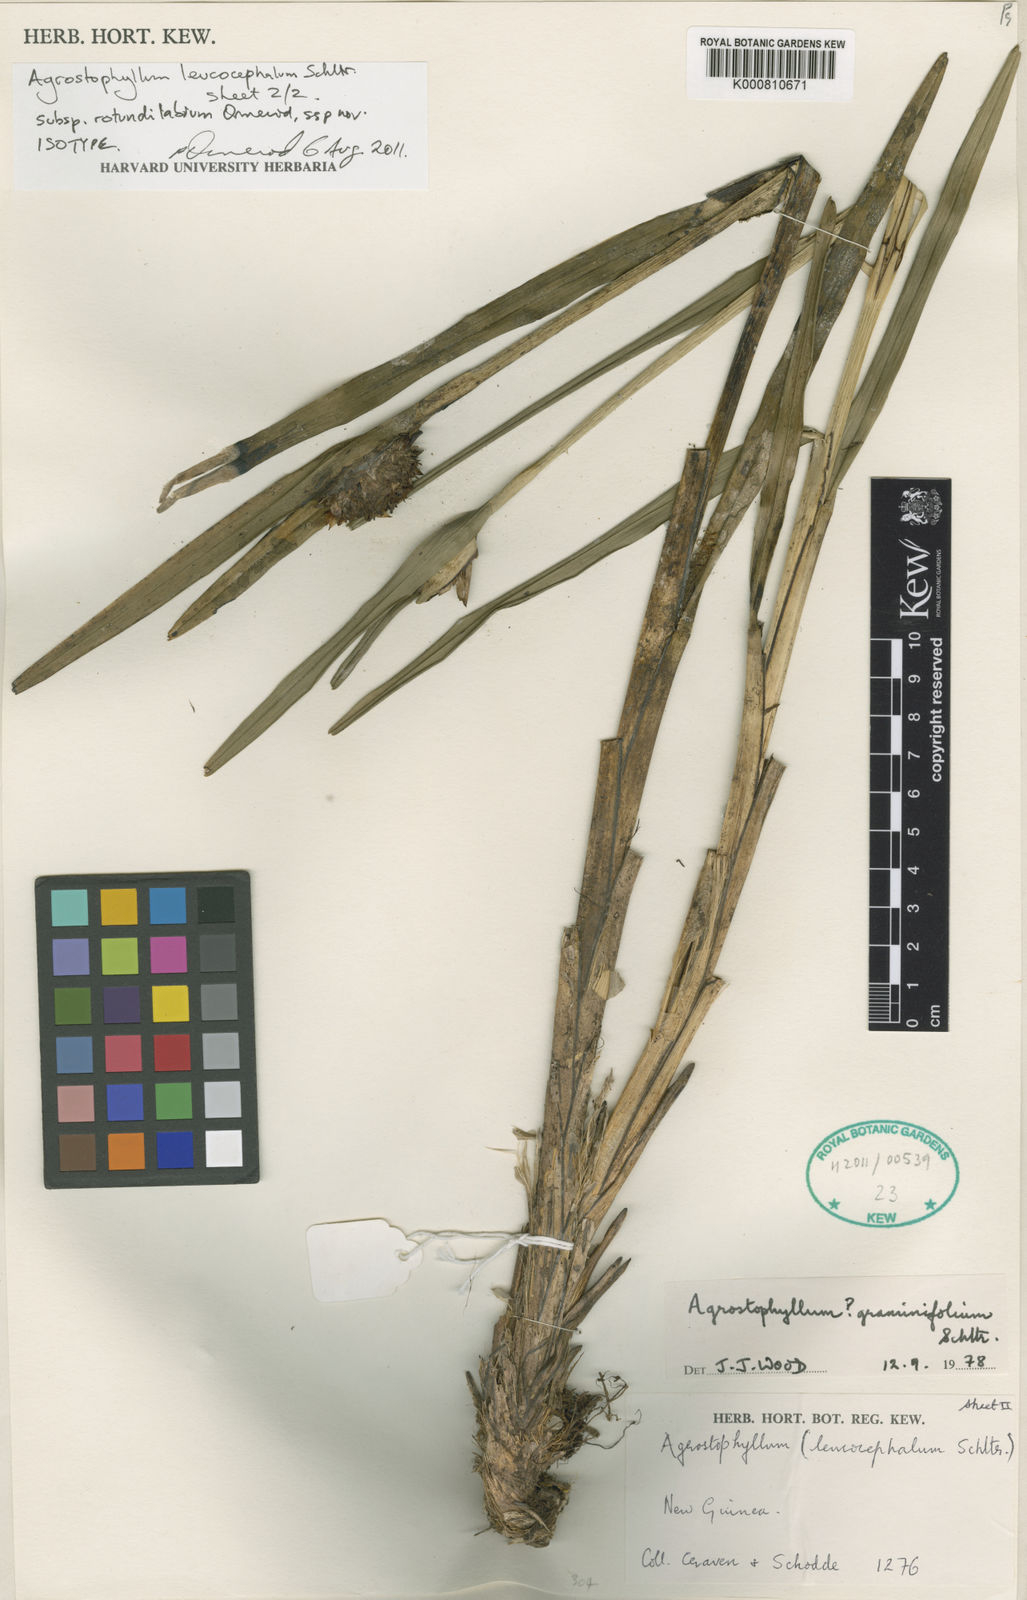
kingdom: Plantae
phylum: Tracheophyta
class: Liliopsida
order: Asparagales
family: Orchidaceae
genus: Agrostophyllum
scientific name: Agrostophyllum leucocephalum
